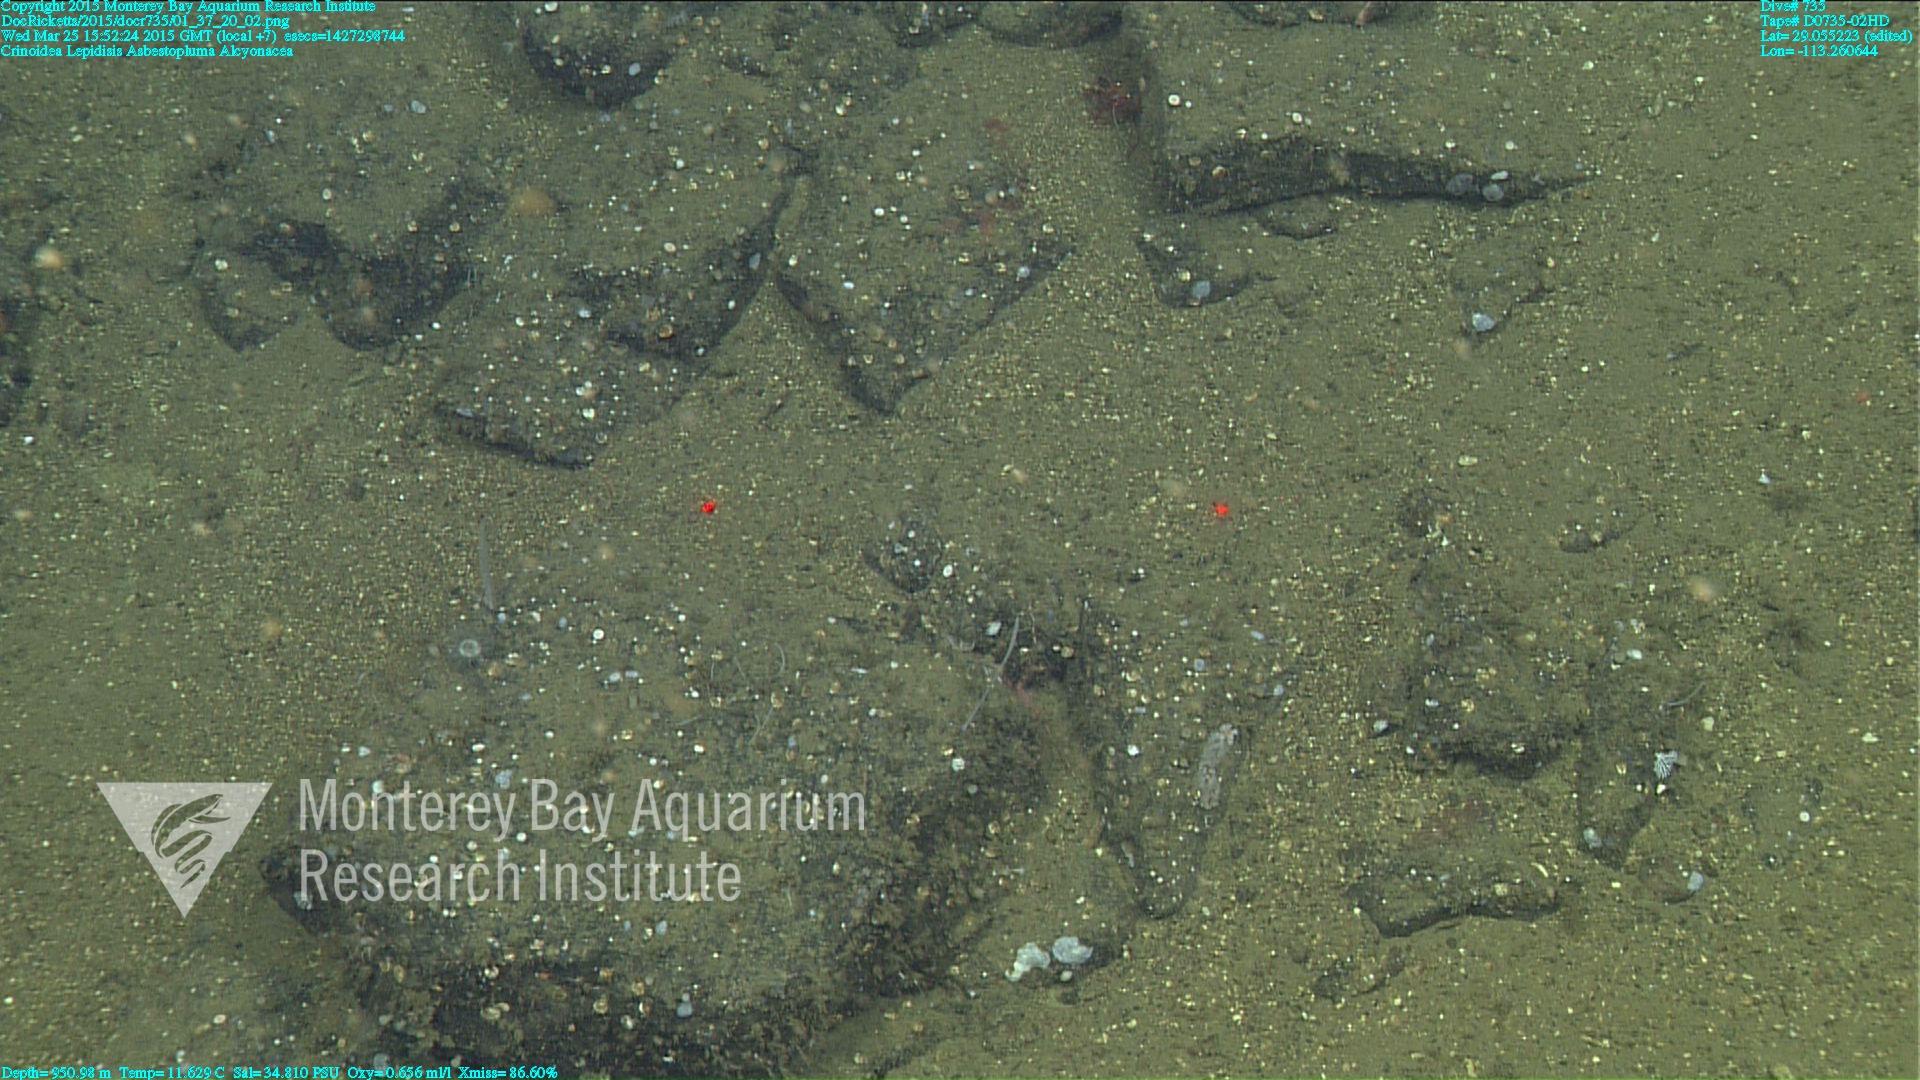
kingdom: Animalia
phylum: Cnidaria
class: Anthozoa
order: Scleralcyonacea
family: Keratoisididae
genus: Lepidisis
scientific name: Lepidisis
